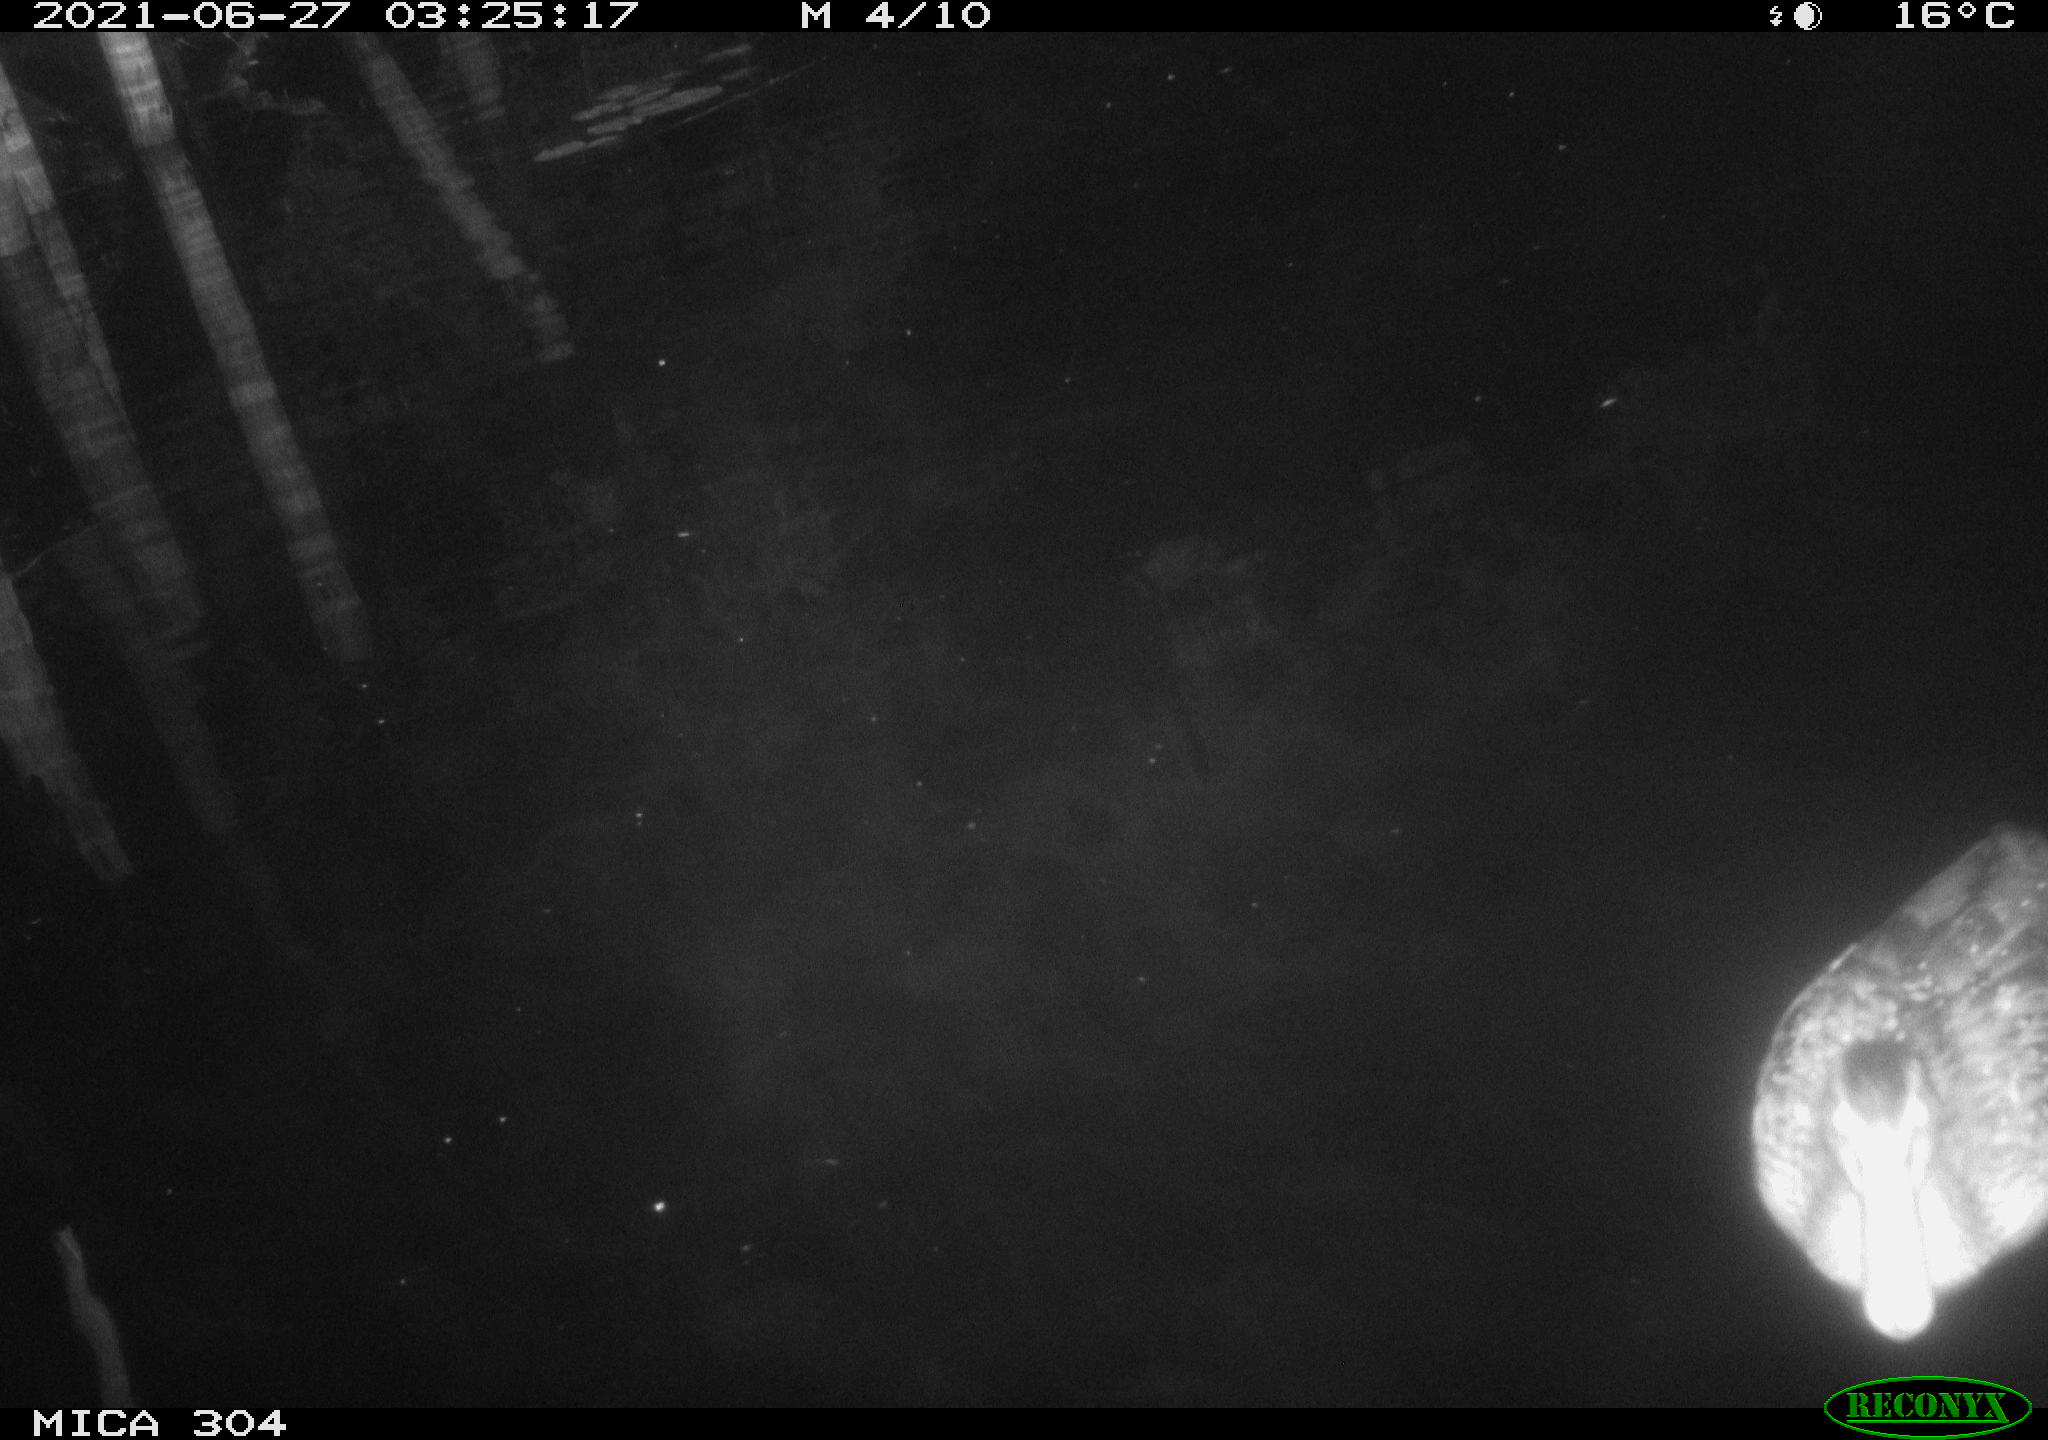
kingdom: Animalia
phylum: Chordata
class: Aves
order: Anseriformes
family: Anatidae
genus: Anas
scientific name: Anas platyrhynchos
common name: Mallard
